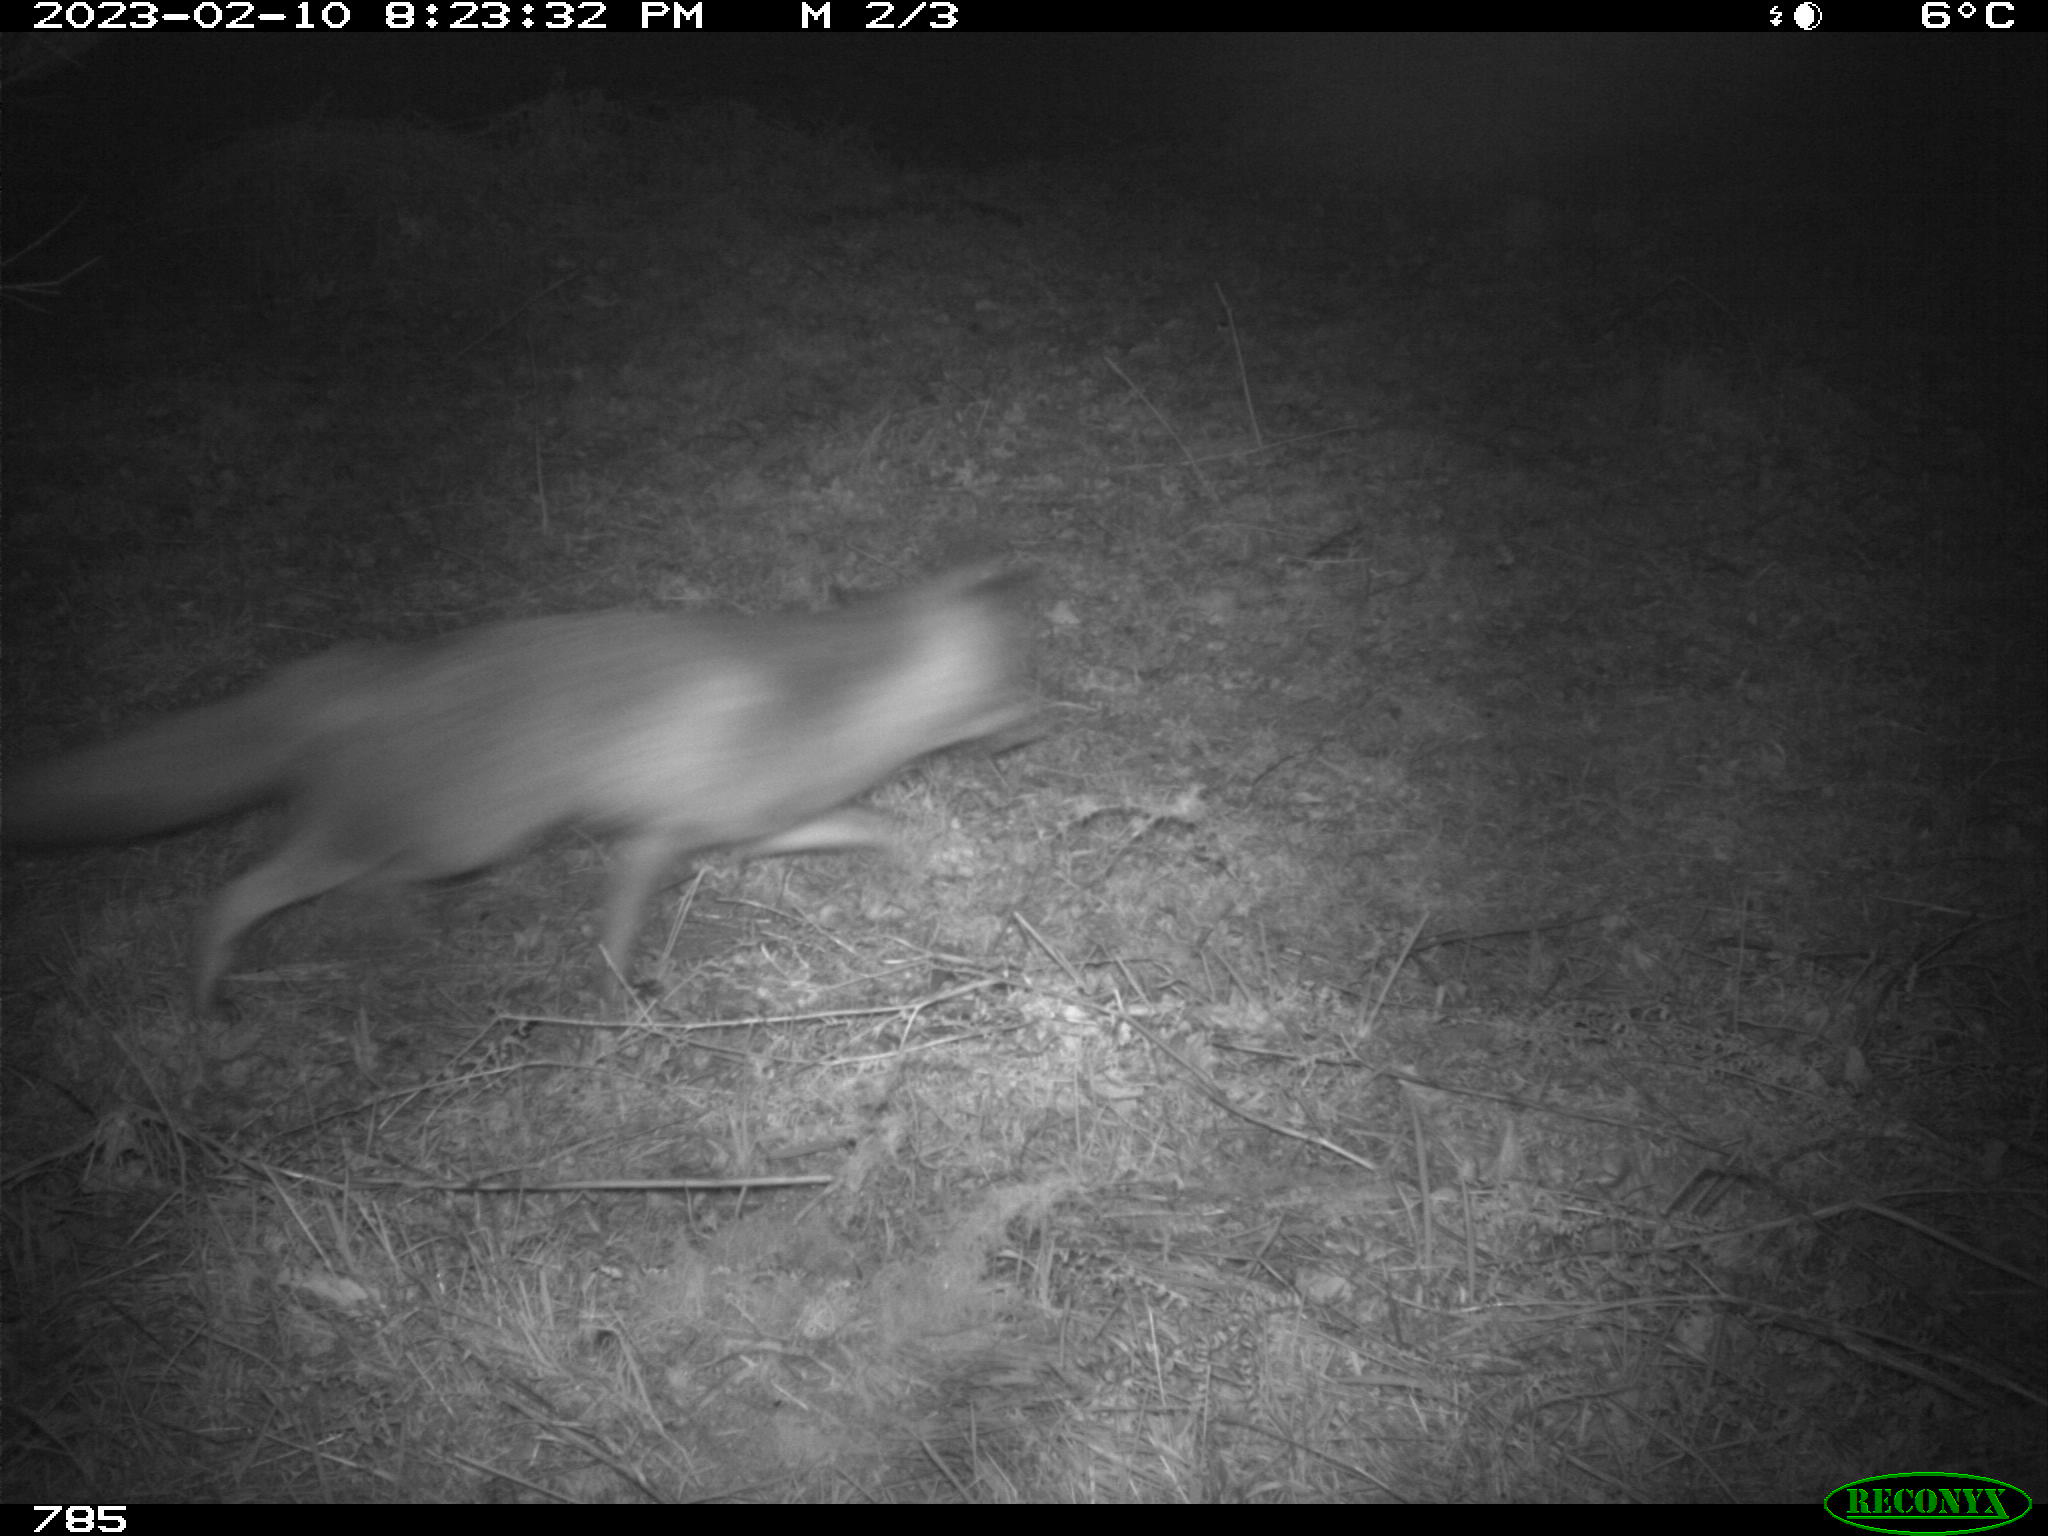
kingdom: Animalia
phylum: Chordata
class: Mammalia
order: Carnivora
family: Canidae
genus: Vulpes
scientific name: Vulpes vulpes
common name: Red fox
